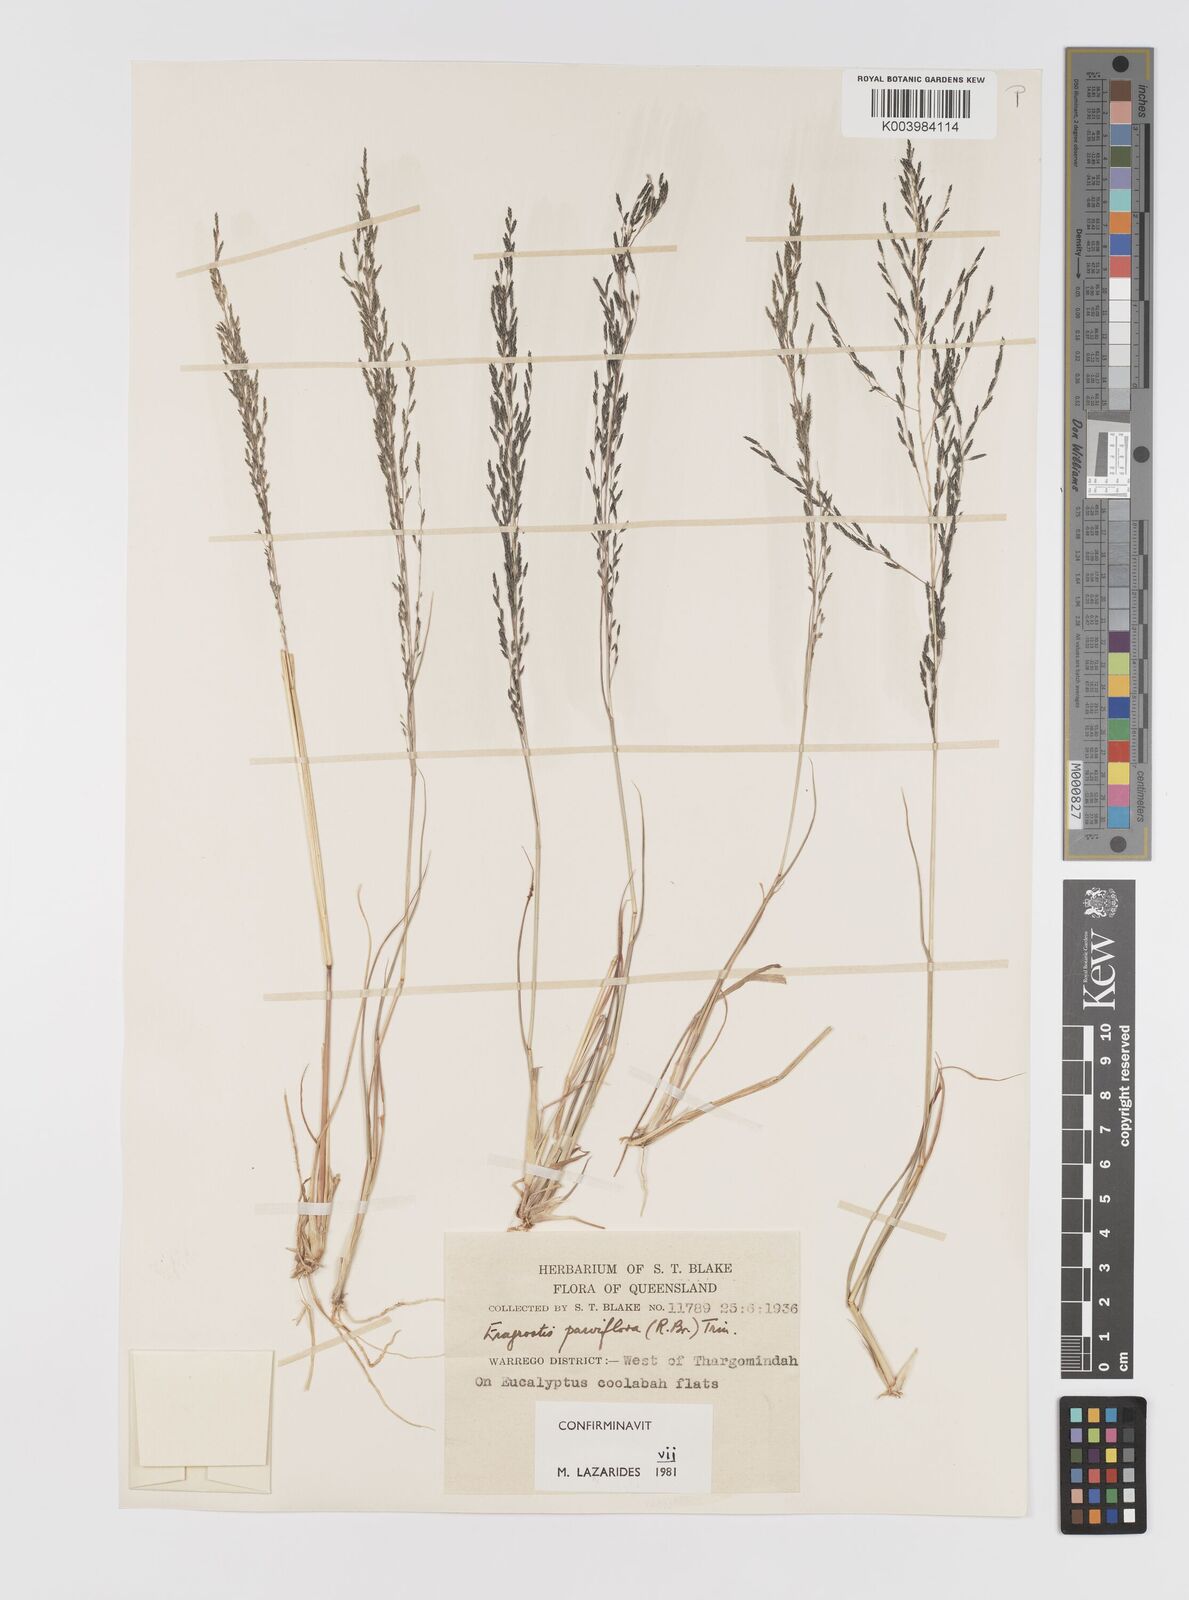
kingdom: Plantae
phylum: Tracheophyta
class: Liliopsida
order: Poales
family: Poaceae
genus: Eragrostis
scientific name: Eragrostis parviflora
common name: Weeping love-grass
